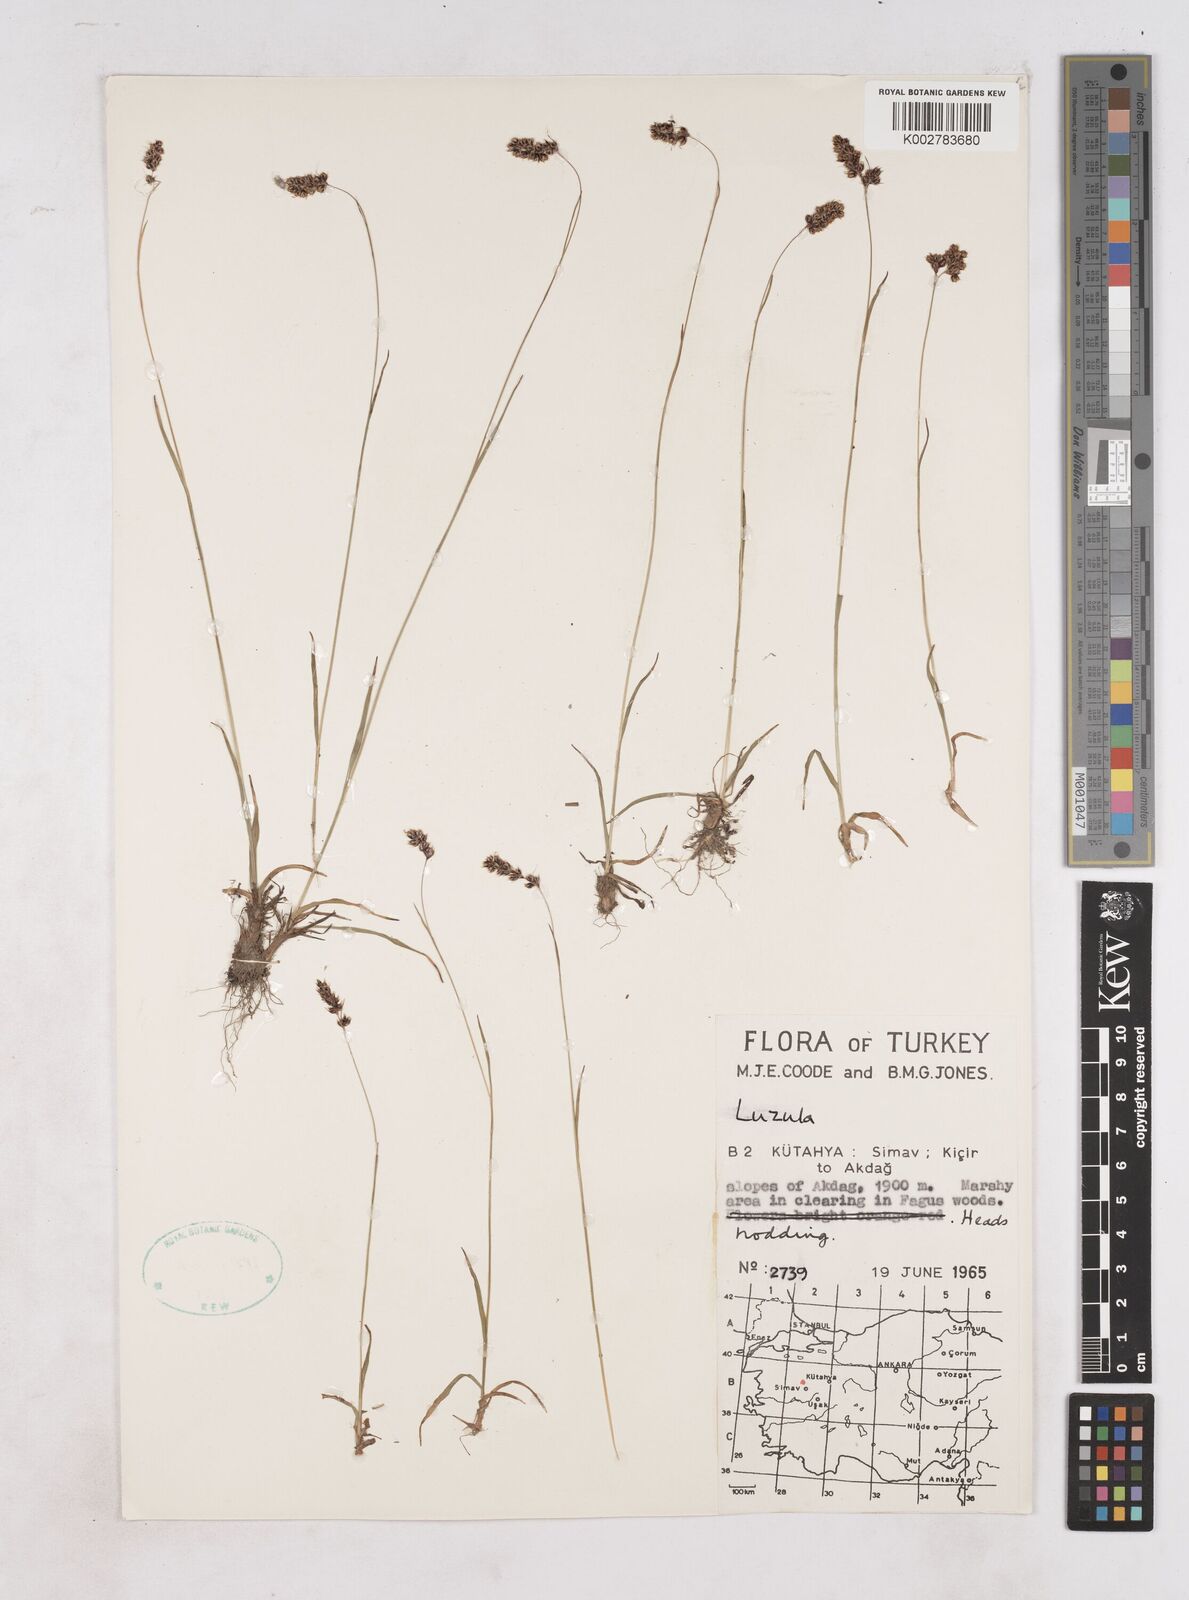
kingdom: Plantae
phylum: Tracheophyta
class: Liliopsida
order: Poales
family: Juncaceae
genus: Luzula
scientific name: Luzula
